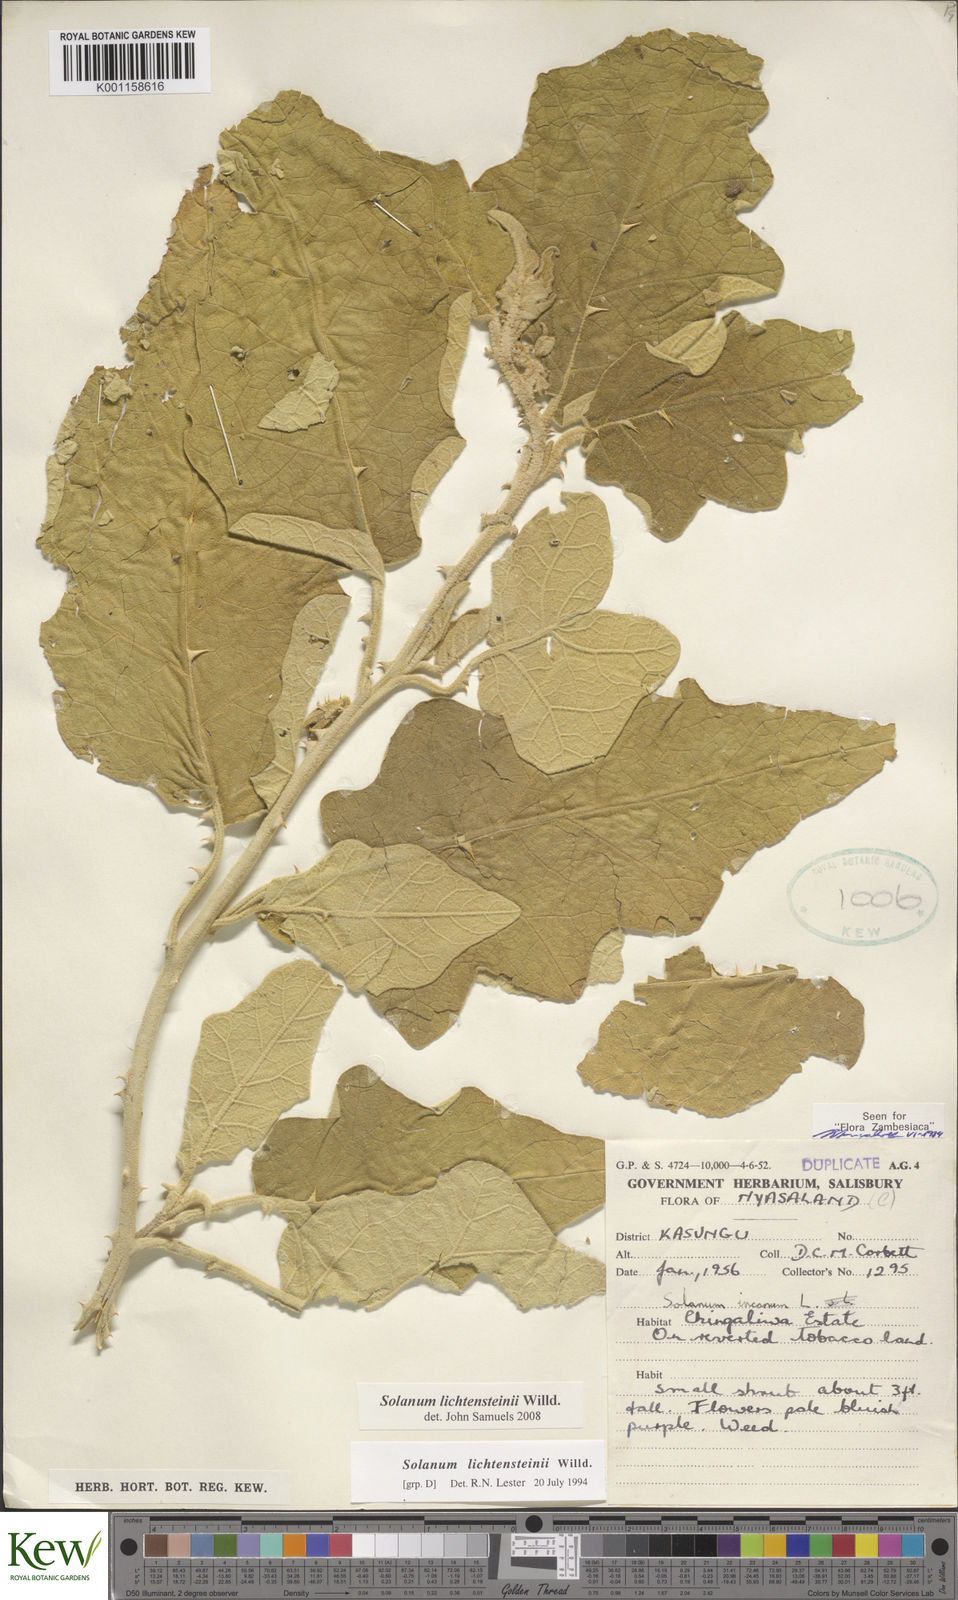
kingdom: Plantae
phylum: Tracheophyta
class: Magnoliopsida
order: Solanales
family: Solanaceae
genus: Solanum
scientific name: Solanum lichtensteinii
